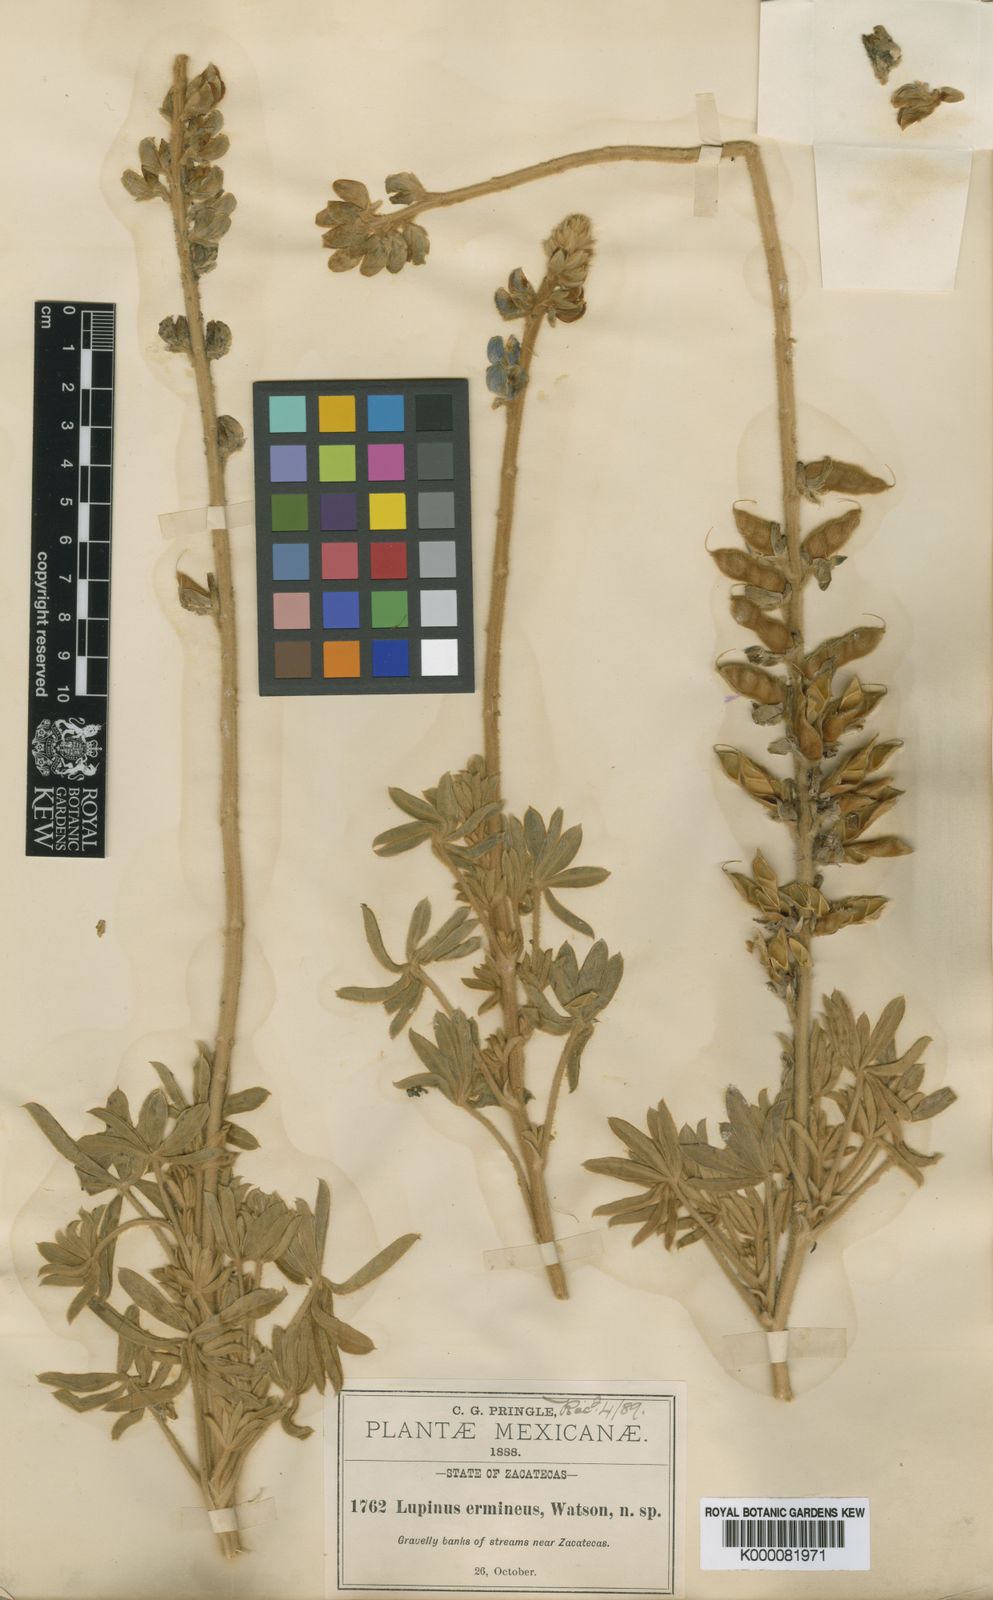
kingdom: Plantae
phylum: Tracheophyta
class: Magnoliopsida
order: Fabales
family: Fabaceae
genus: Lupinus
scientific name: Lupinus ermineus
